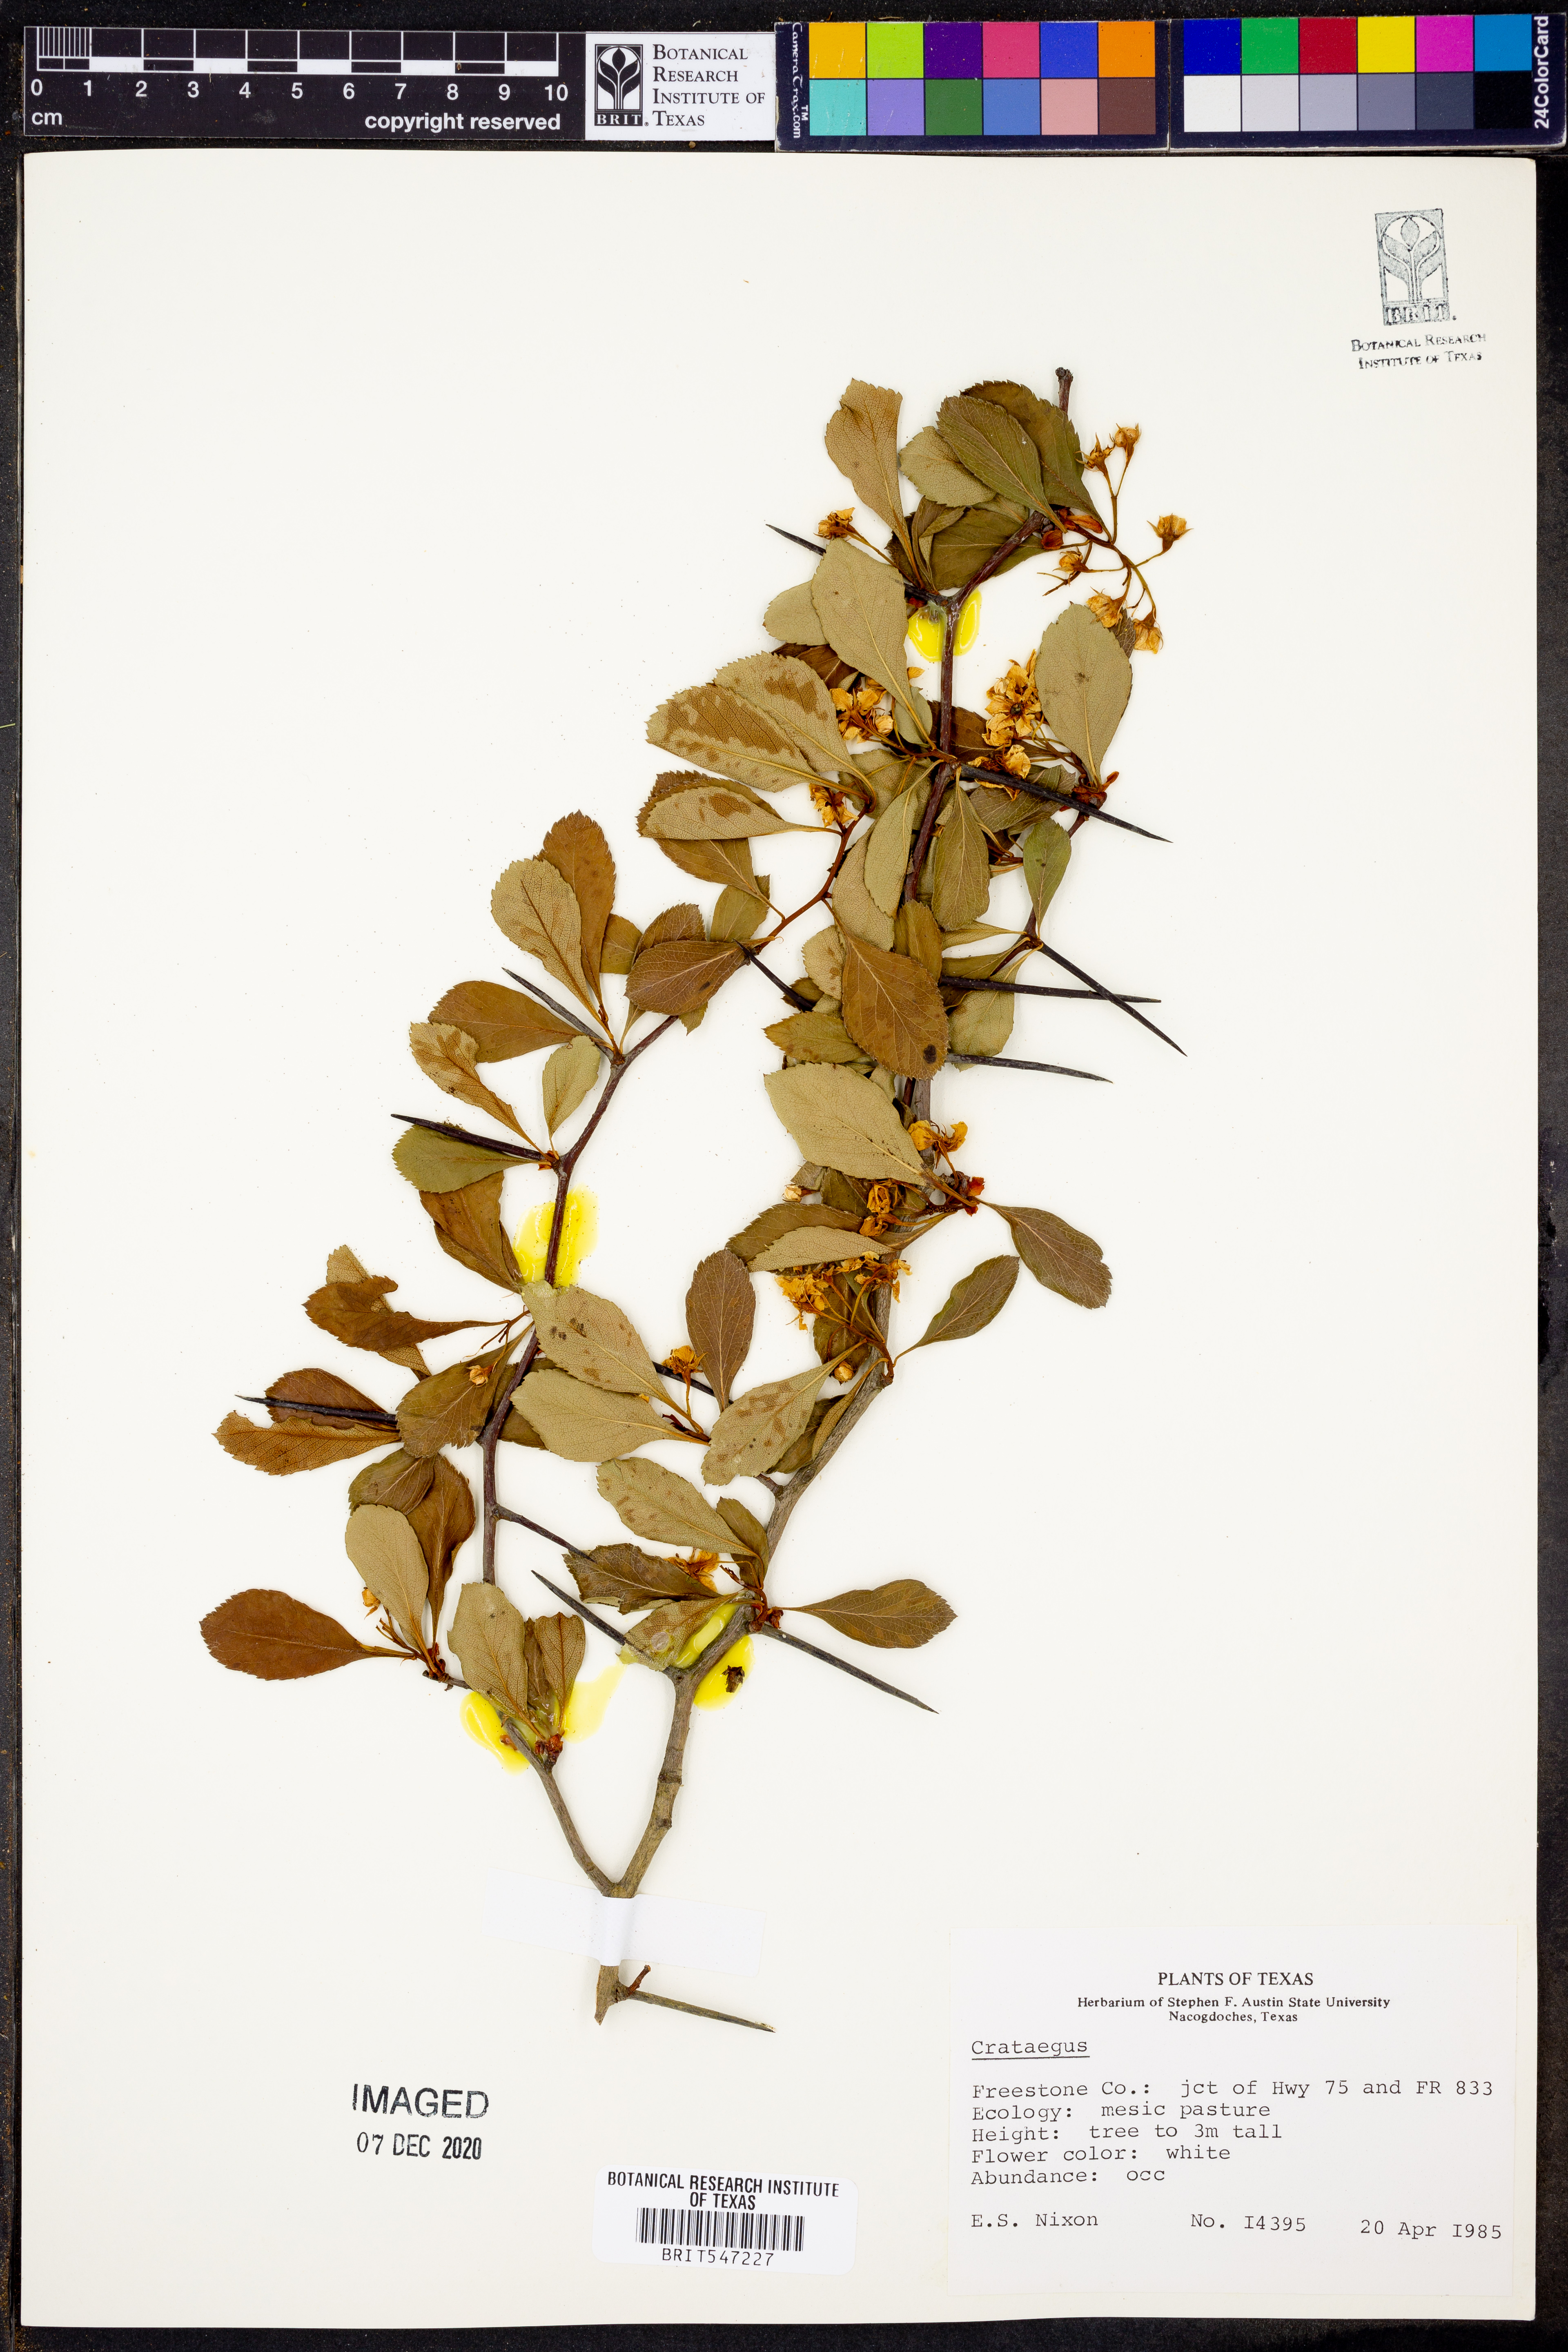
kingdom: Plantae
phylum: Tracheophyta
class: Magnoliopsida
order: Rosales
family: Rosaceae
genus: Crataegus
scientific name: Crataegus
